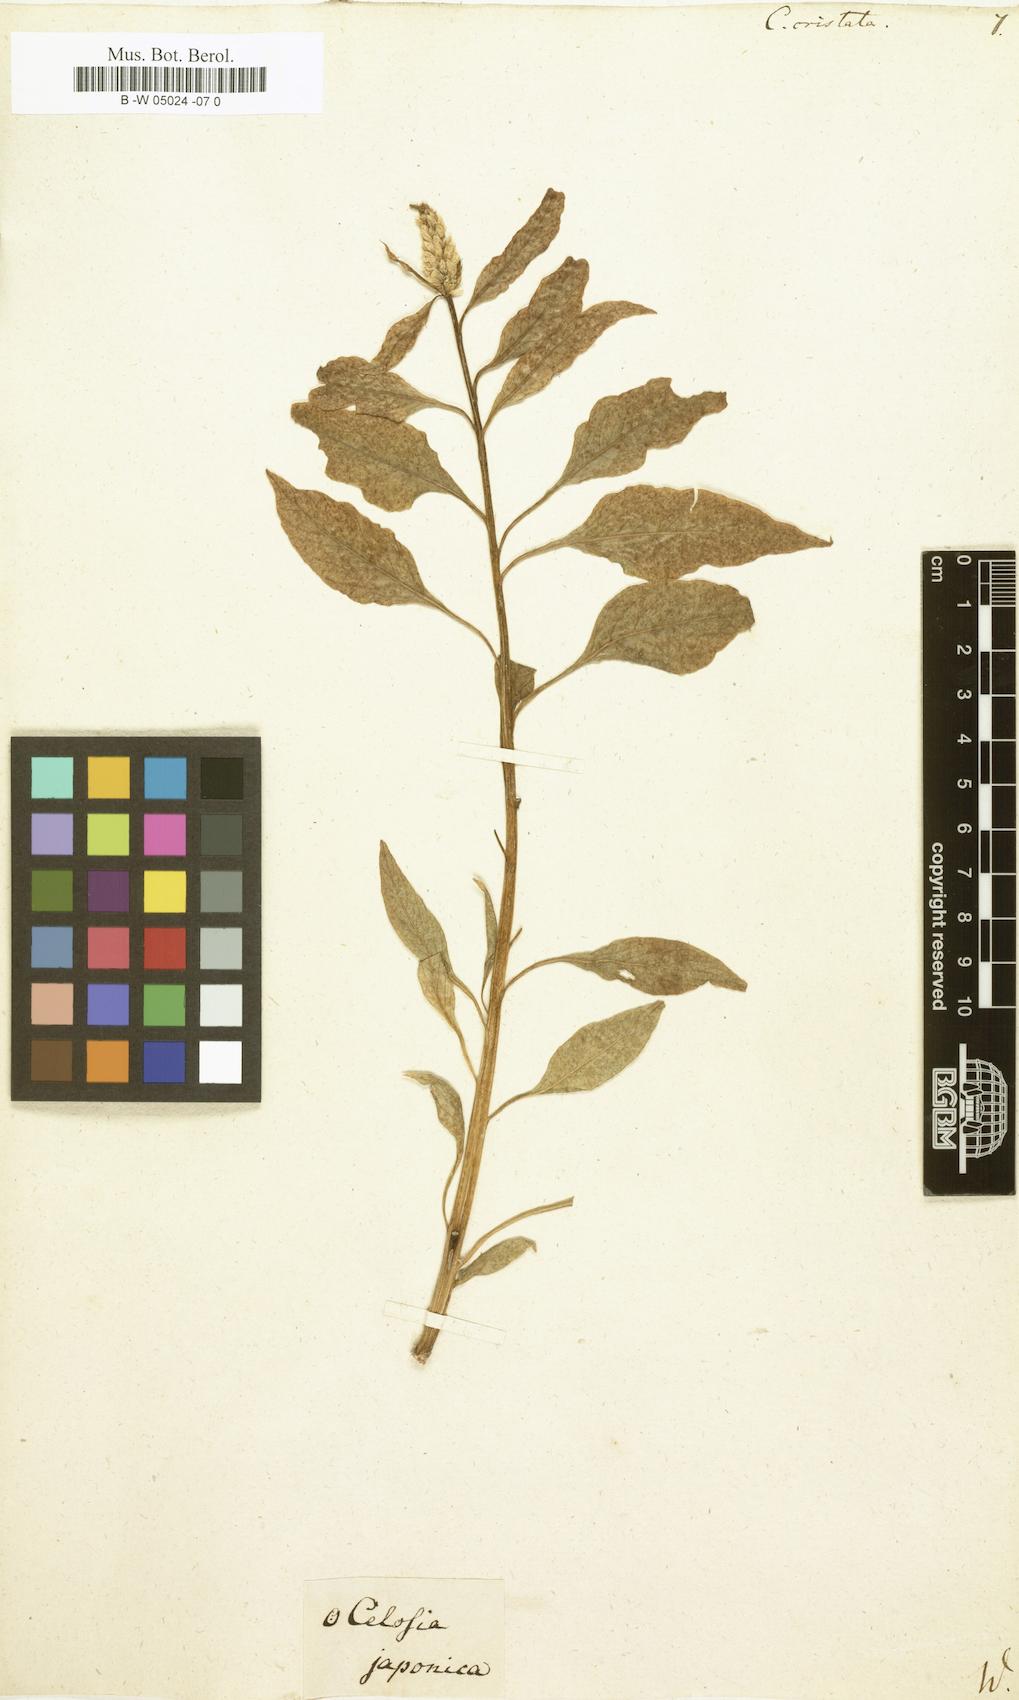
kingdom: Plantae
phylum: Tracheophyta
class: Magnoliopsida
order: Caryophyllales
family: Amaranthaceae
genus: Celosia
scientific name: Celosia argentea
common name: Feather cockscomb
